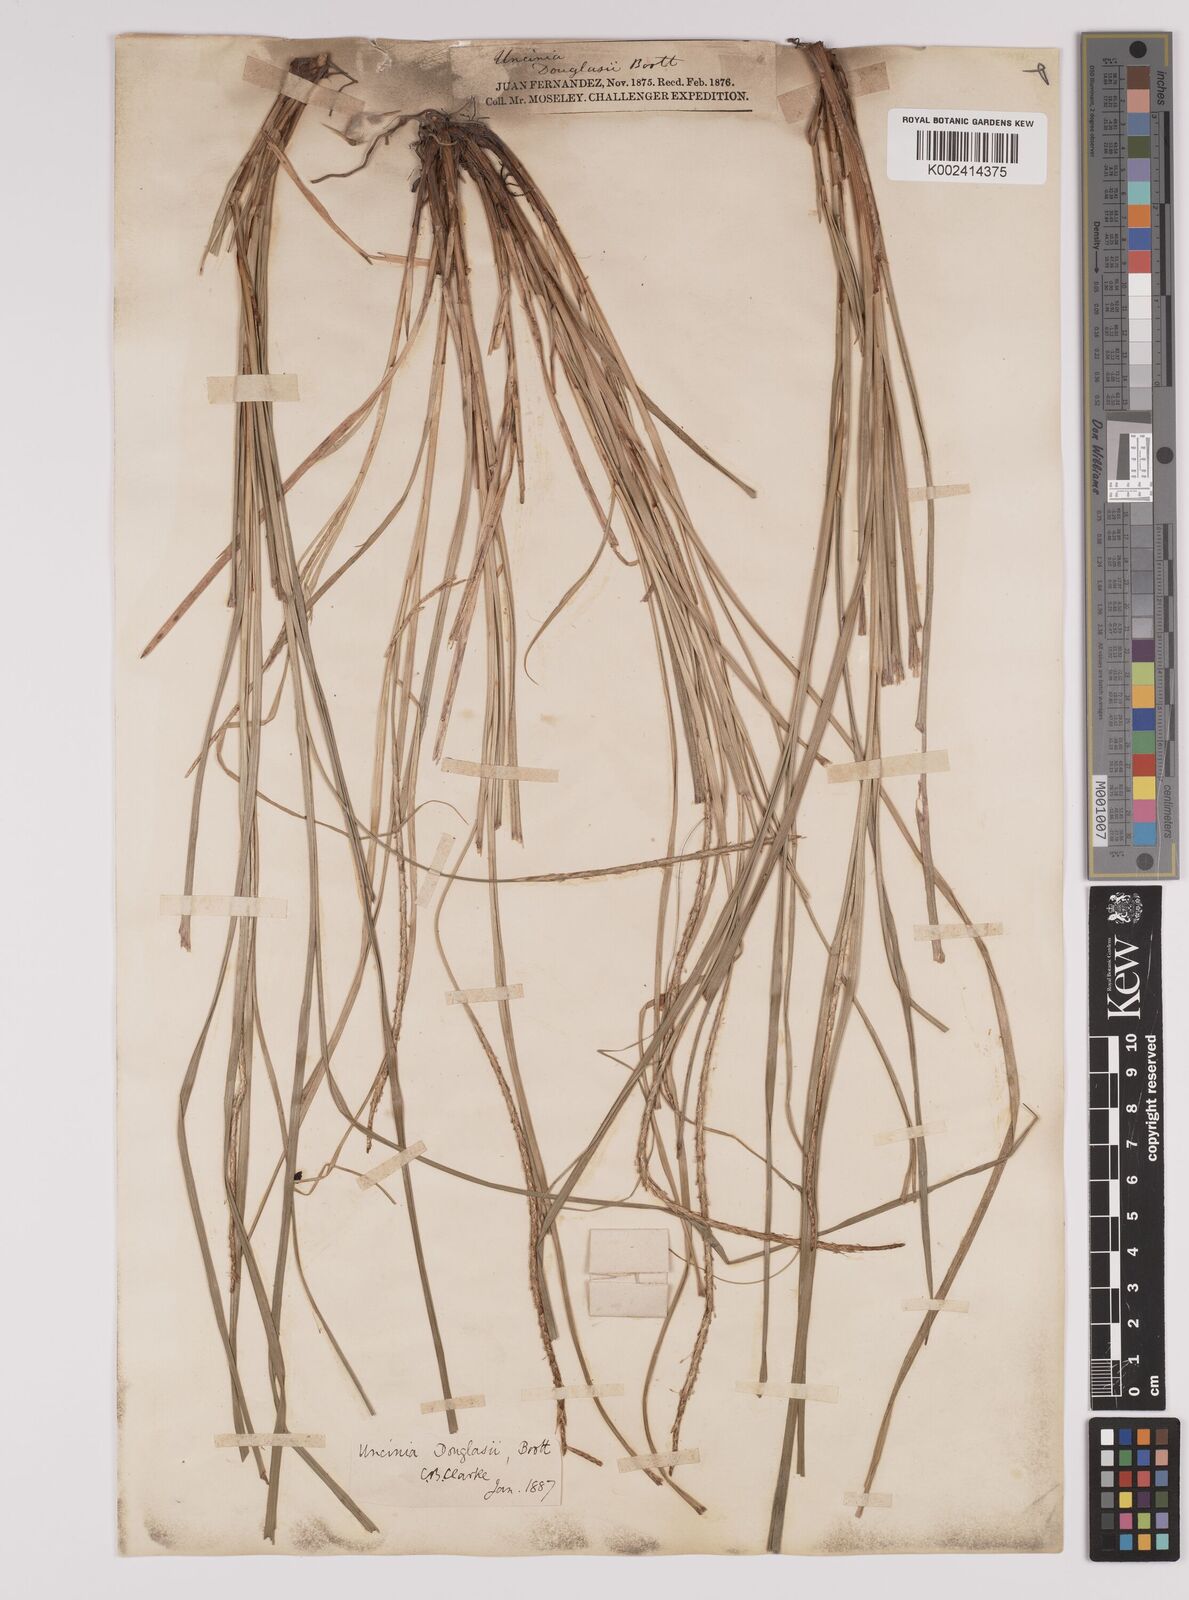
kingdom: Plantae
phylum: Tracheophyta
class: Liliopsida
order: Poales
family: Cyperaceae
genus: Carex
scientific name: Carex fernandesiana
